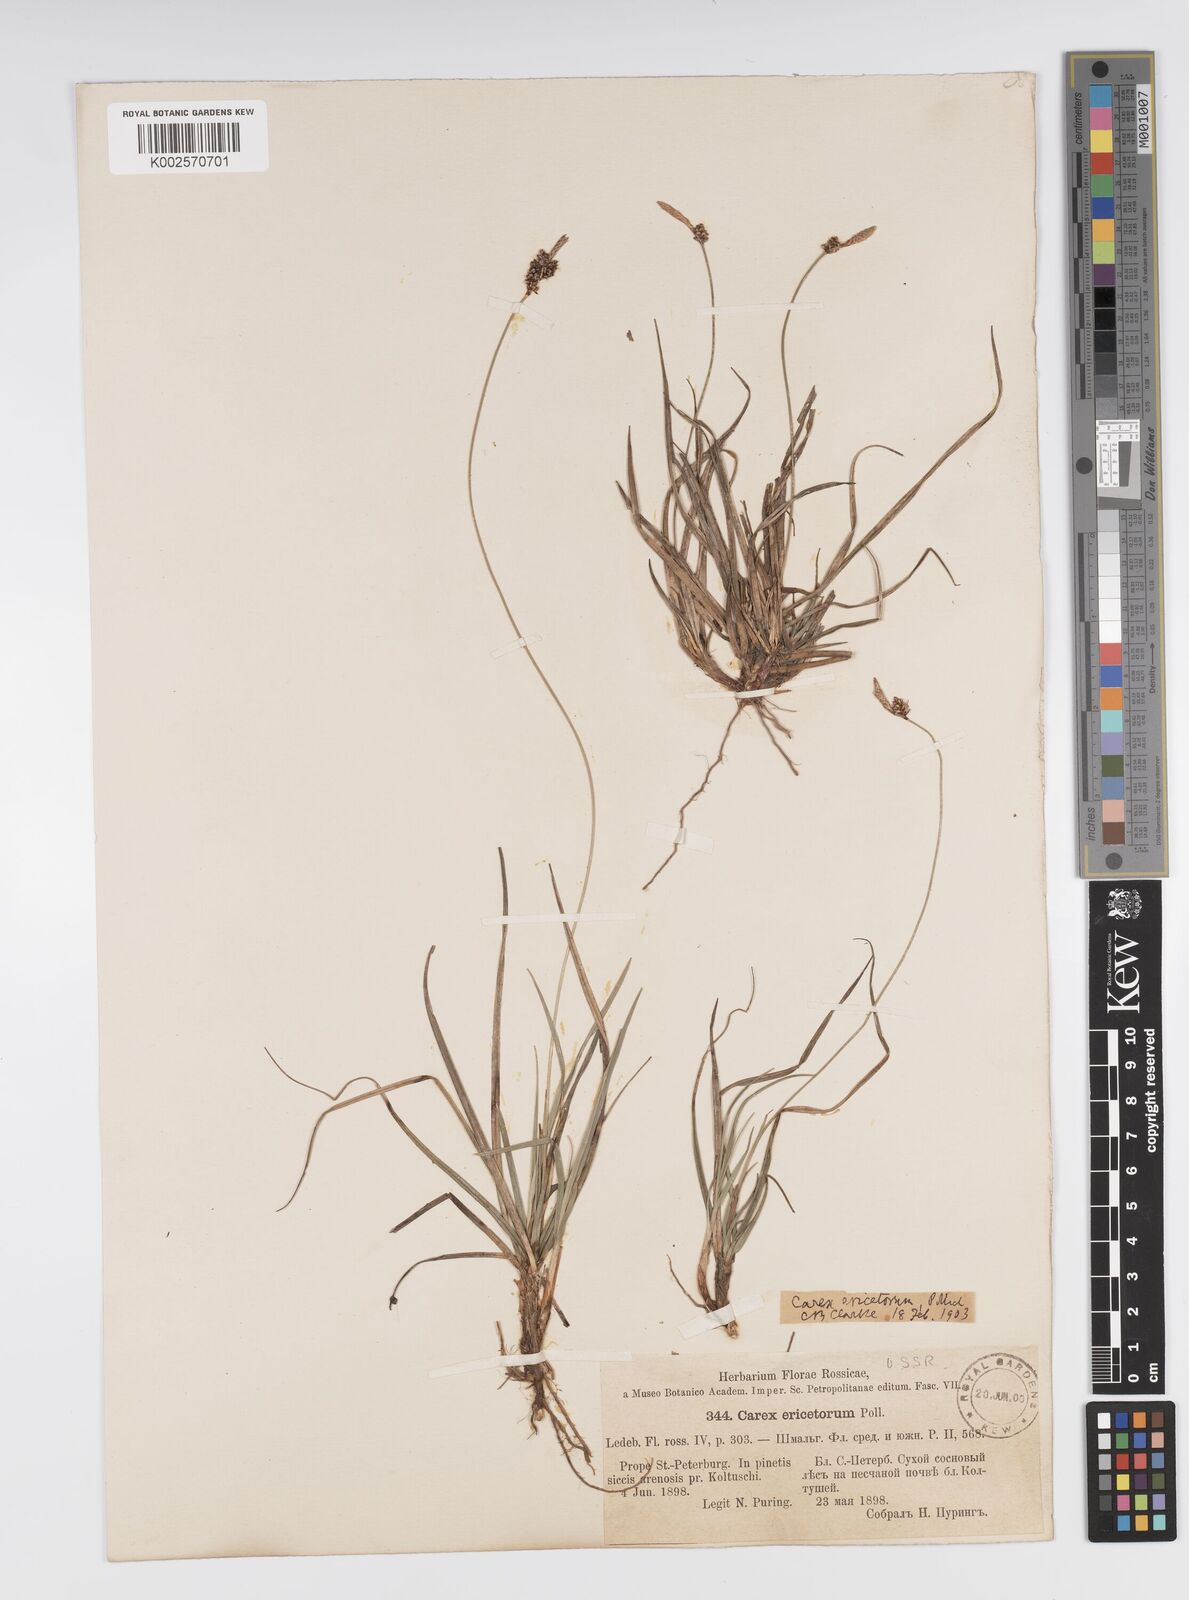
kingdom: Plantae
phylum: Tracheophyta
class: Liliopsida
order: Poales
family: Cyperaceae
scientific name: Cyperaceae
